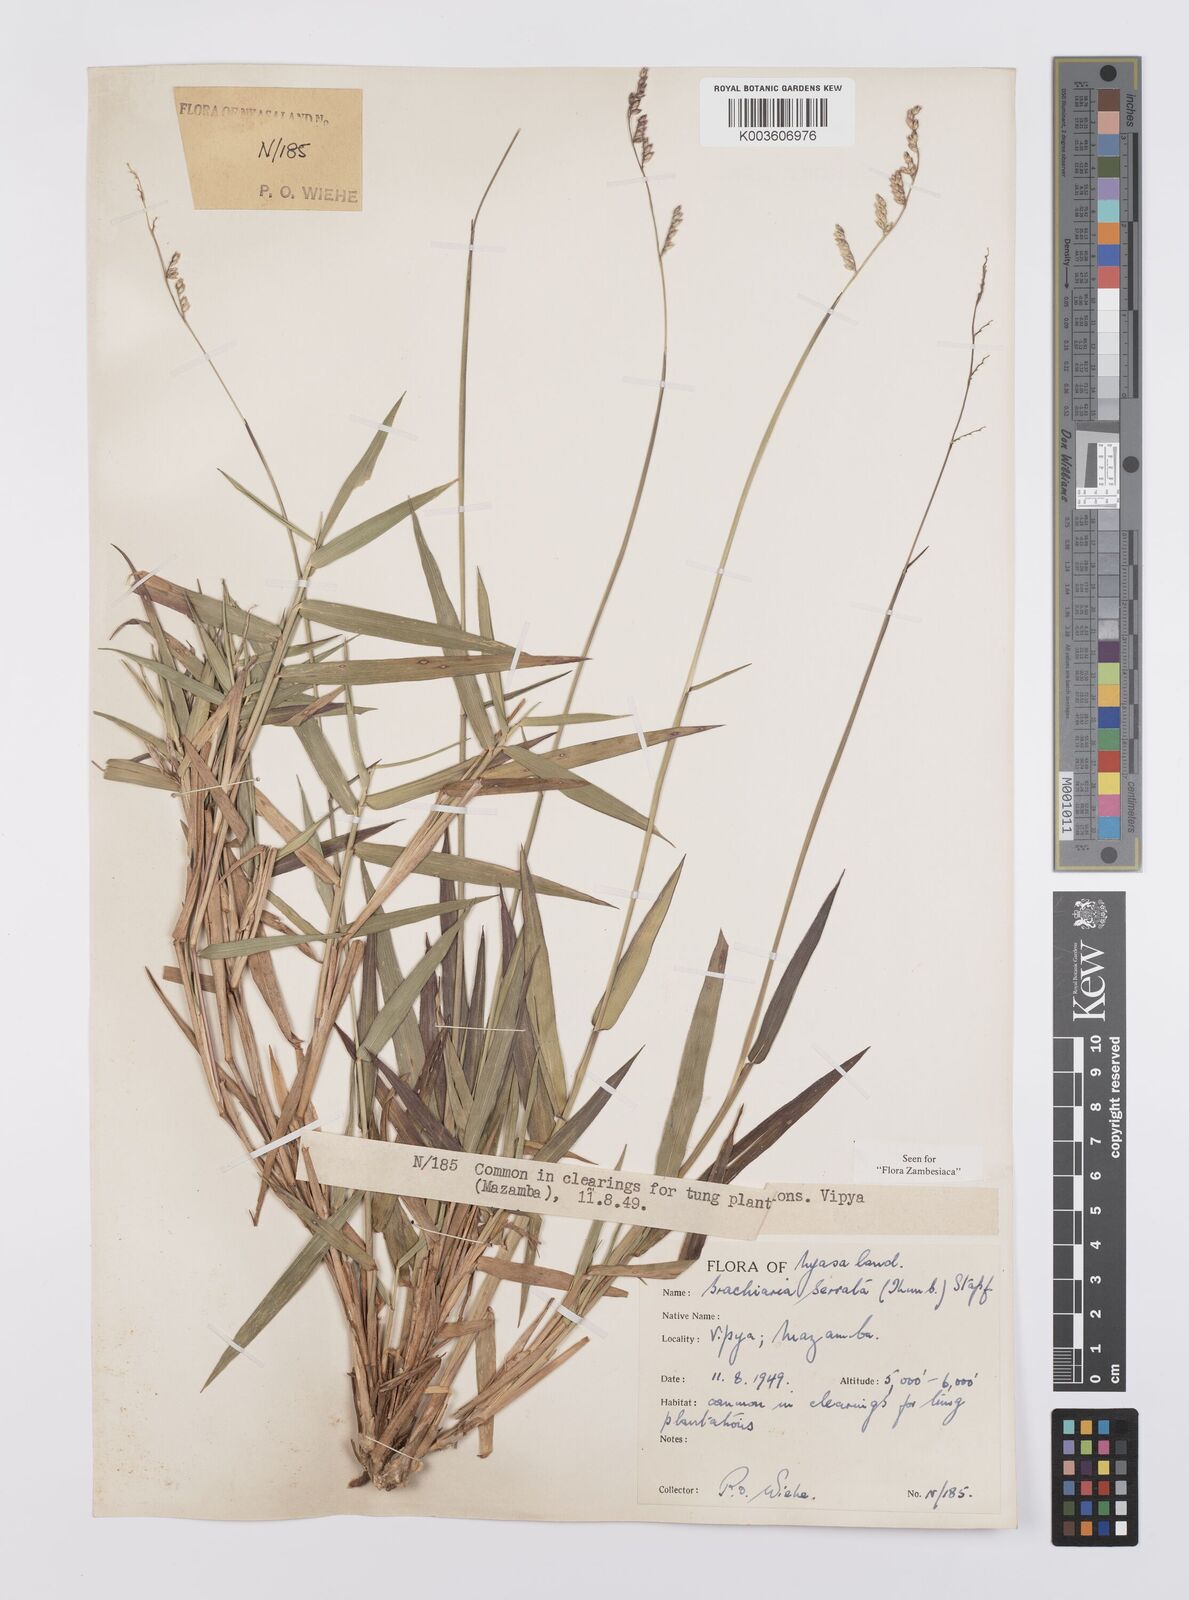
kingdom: Plantae
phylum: Tracheophyta
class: Liliopsida
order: Poales
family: Poaceae
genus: Urochloa
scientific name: Urochloa serrata
